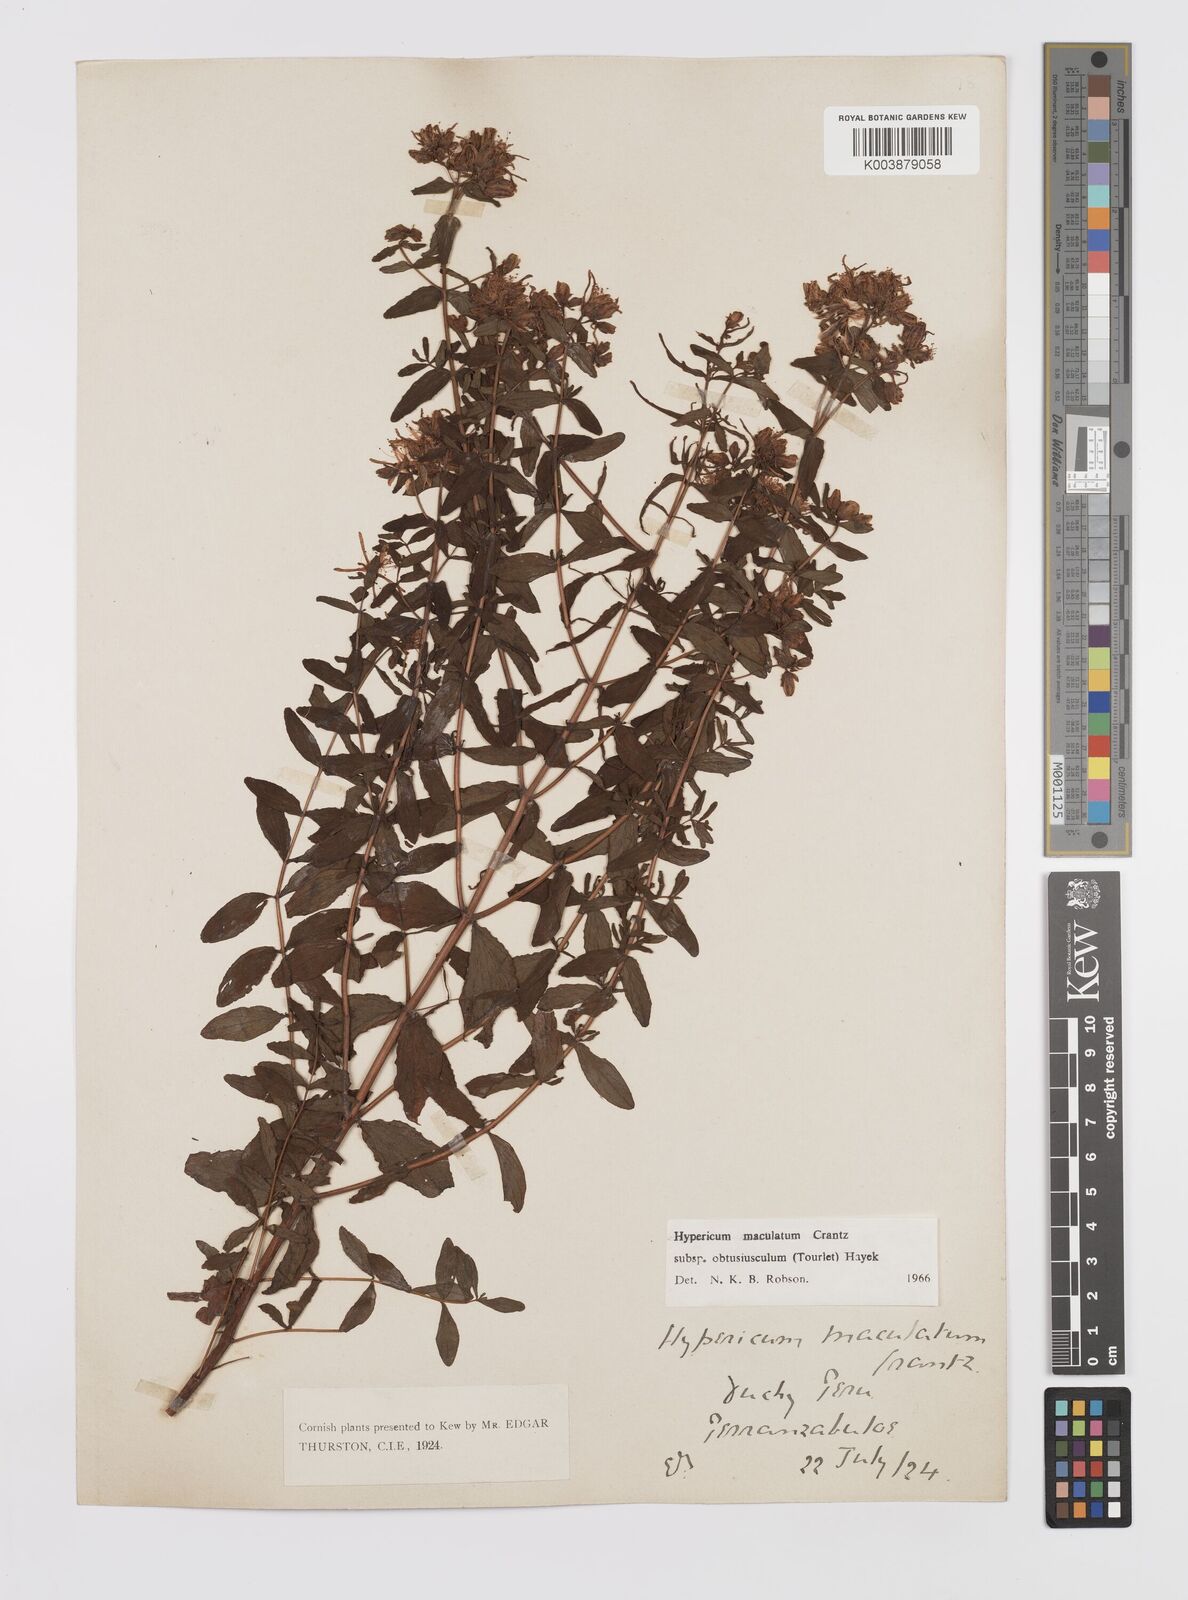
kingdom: Plantae
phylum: Tracheophyta
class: Magnoliopsida
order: Malpighiales
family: Hypericaceae
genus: Hypericum
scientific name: Hypericum dubium
